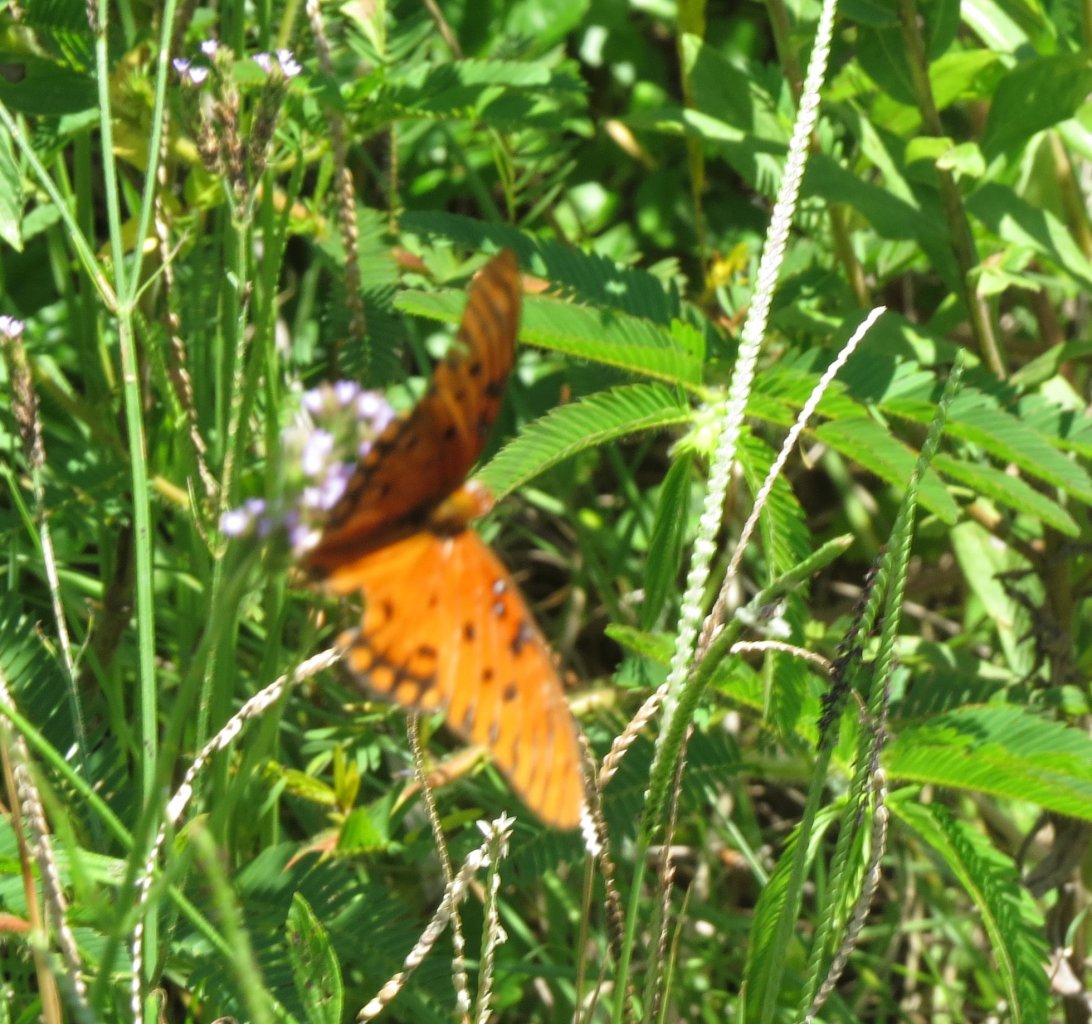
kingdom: Animalia
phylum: Arthropoda
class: Insecta
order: Lepidoptera
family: Nymphalidae
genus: Dione
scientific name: Dione vanillae
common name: Gulf Fritillary
